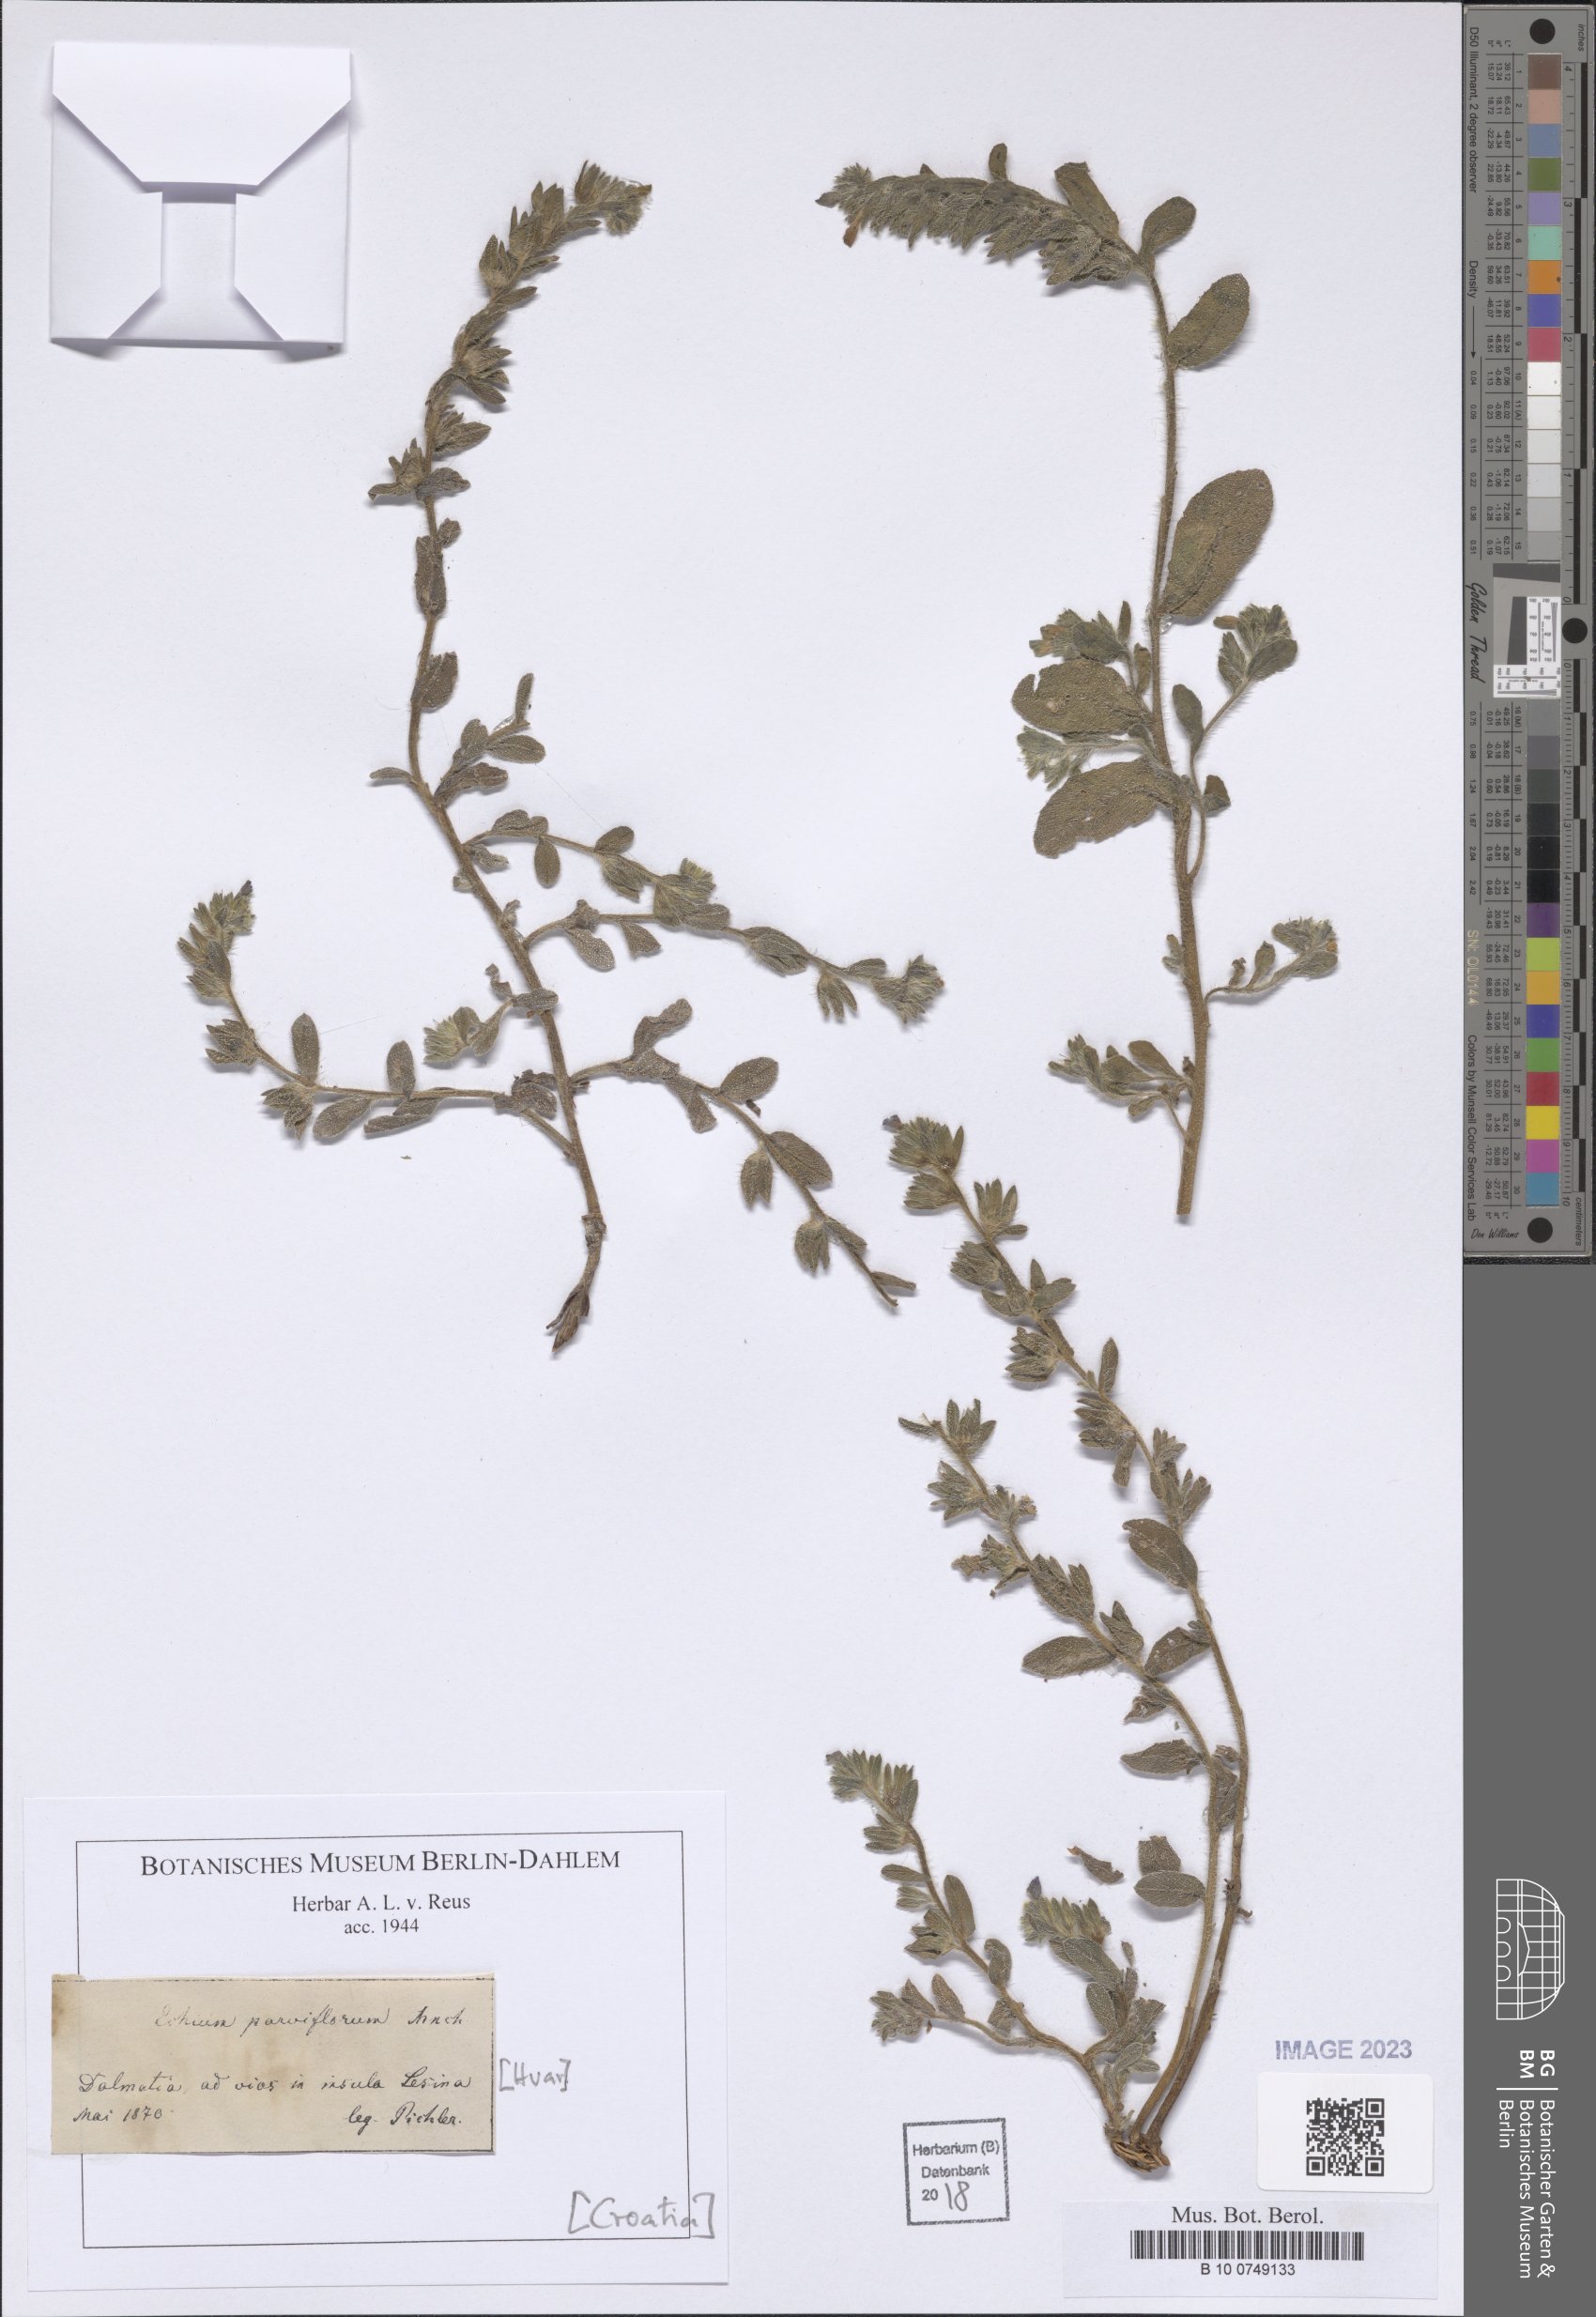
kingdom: Plantae
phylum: Tracheophyta
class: Magnoliopsida
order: Boraginales
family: Boraginaceae
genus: Echium
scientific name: Echium parviflorum
